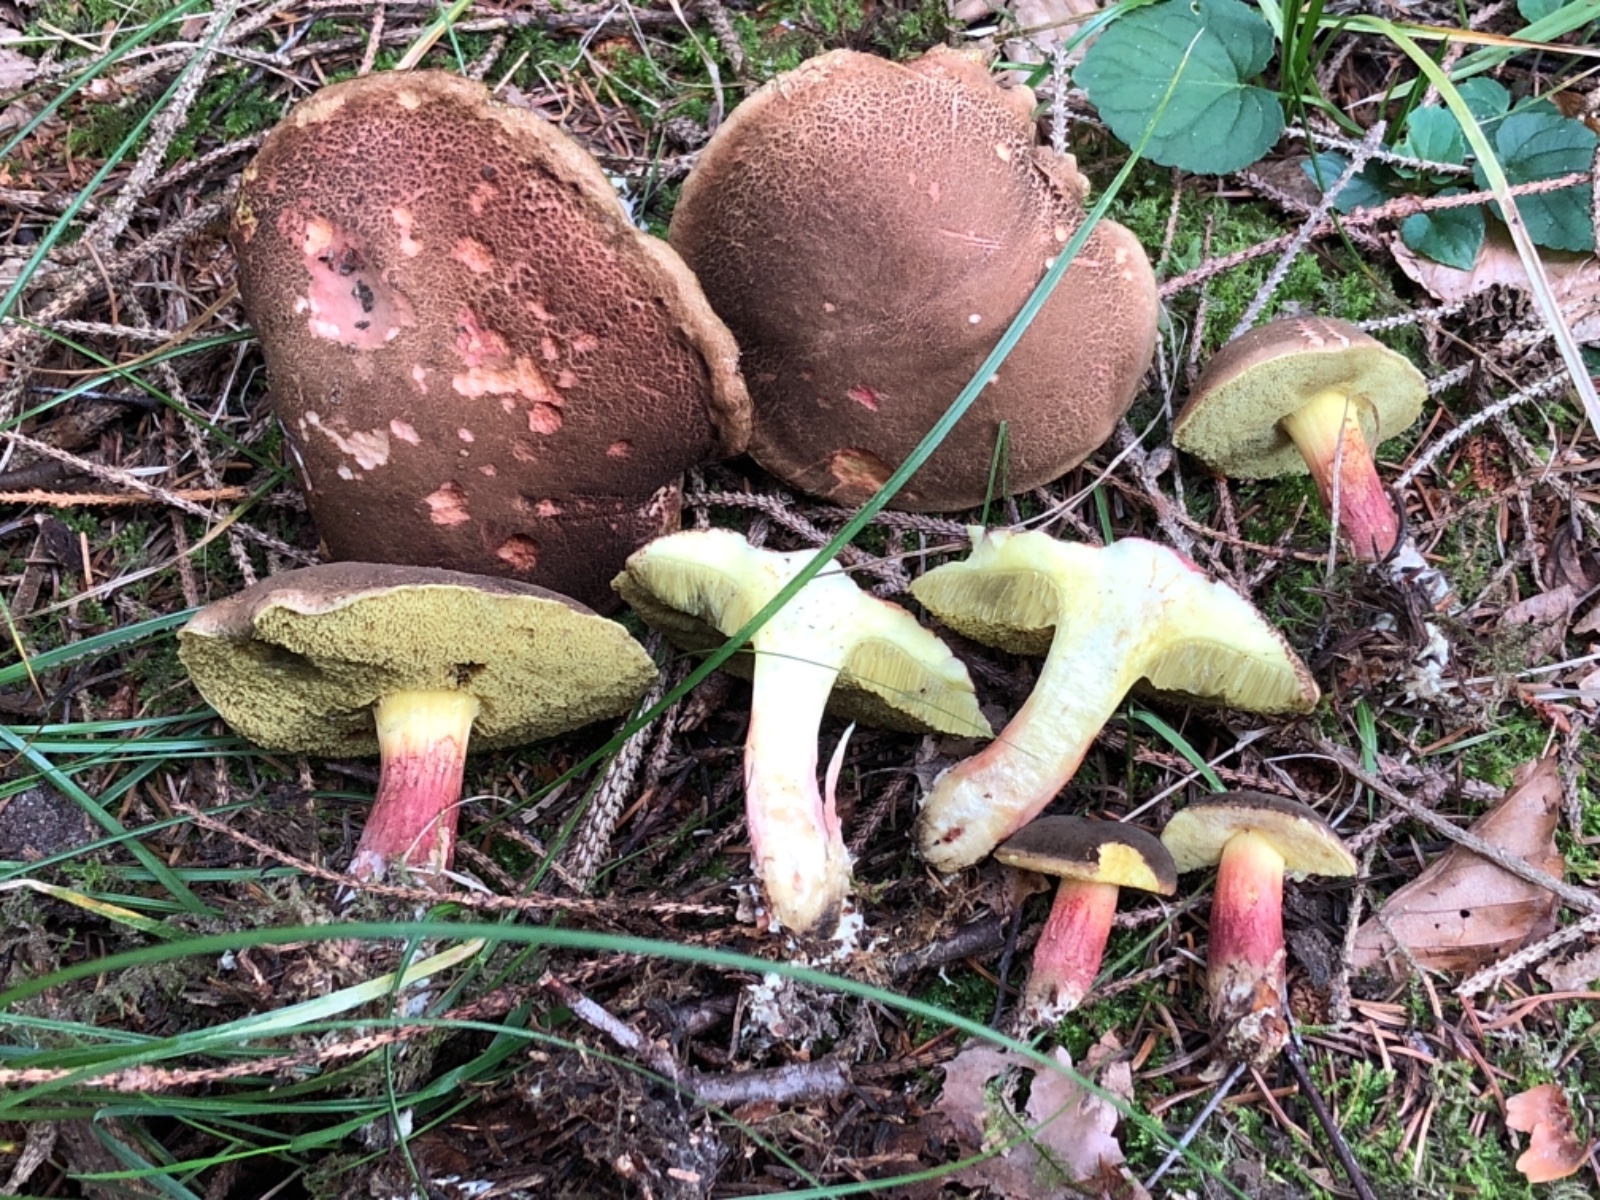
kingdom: Fungi
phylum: Basidiomycota
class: Agaricomycetes
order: Boletales
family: Boletaceae
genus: Xerocomellus
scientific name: Xerocomellus chrysenteron
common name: rødsprukken rørhat
